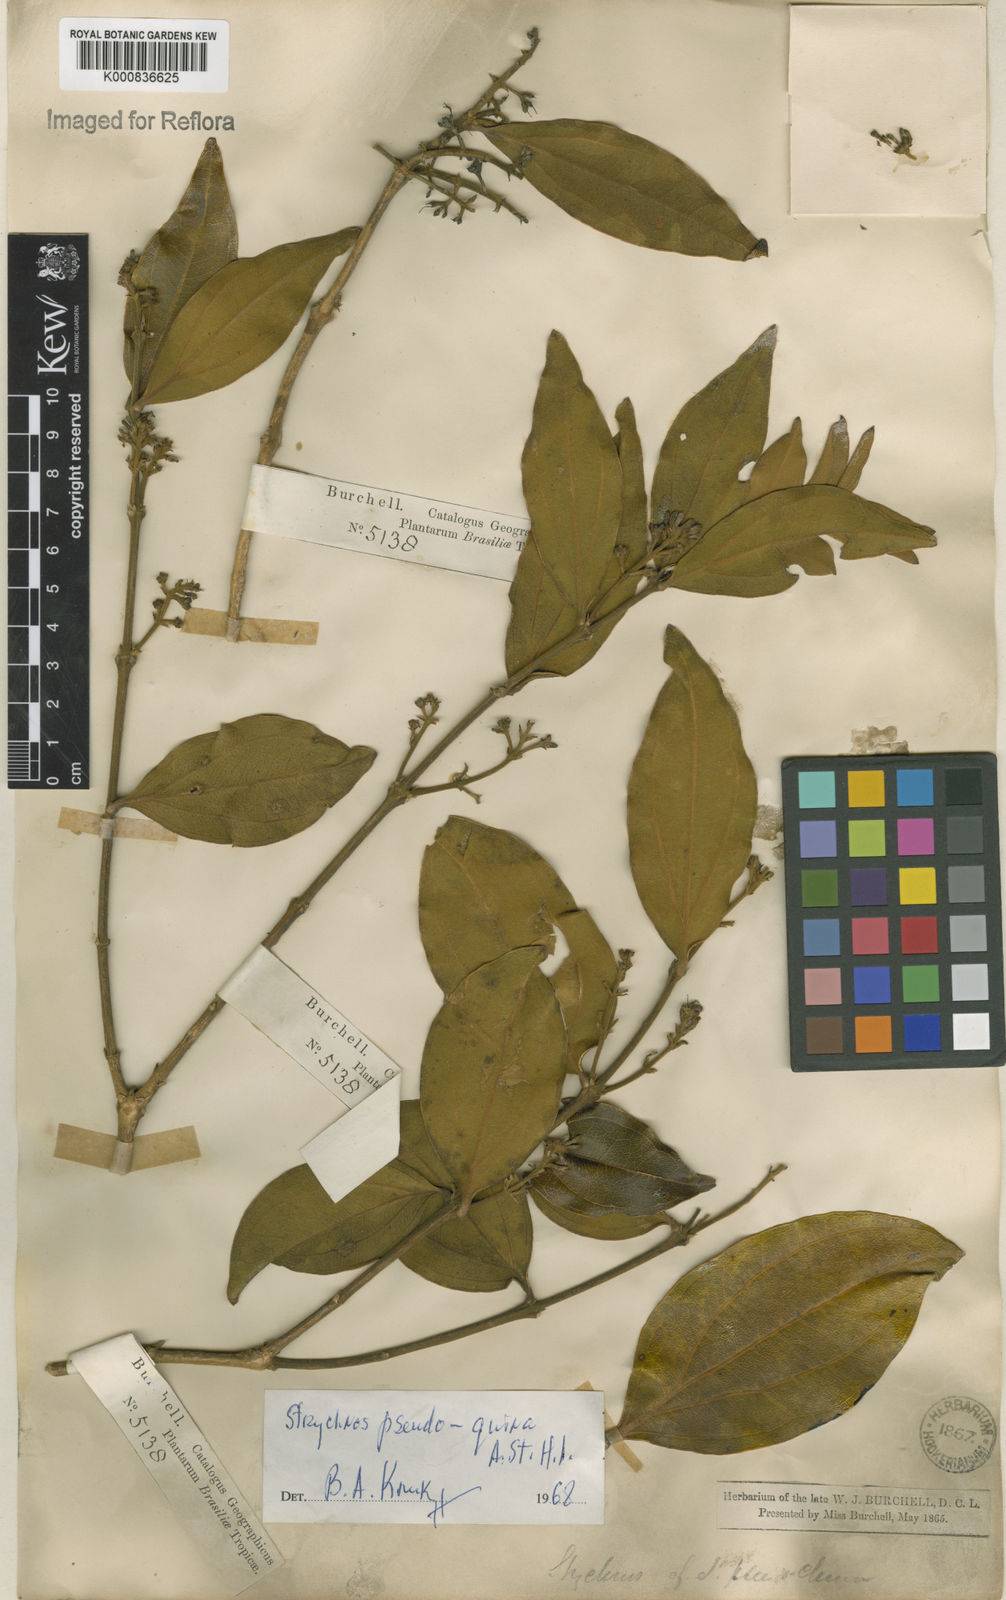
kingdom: Plantae
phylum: Tracheophyta
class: Magnoliopsida
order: Gentianales
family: Loganiaceae
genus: Strychnos
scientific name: Strychnos pseudoquina
